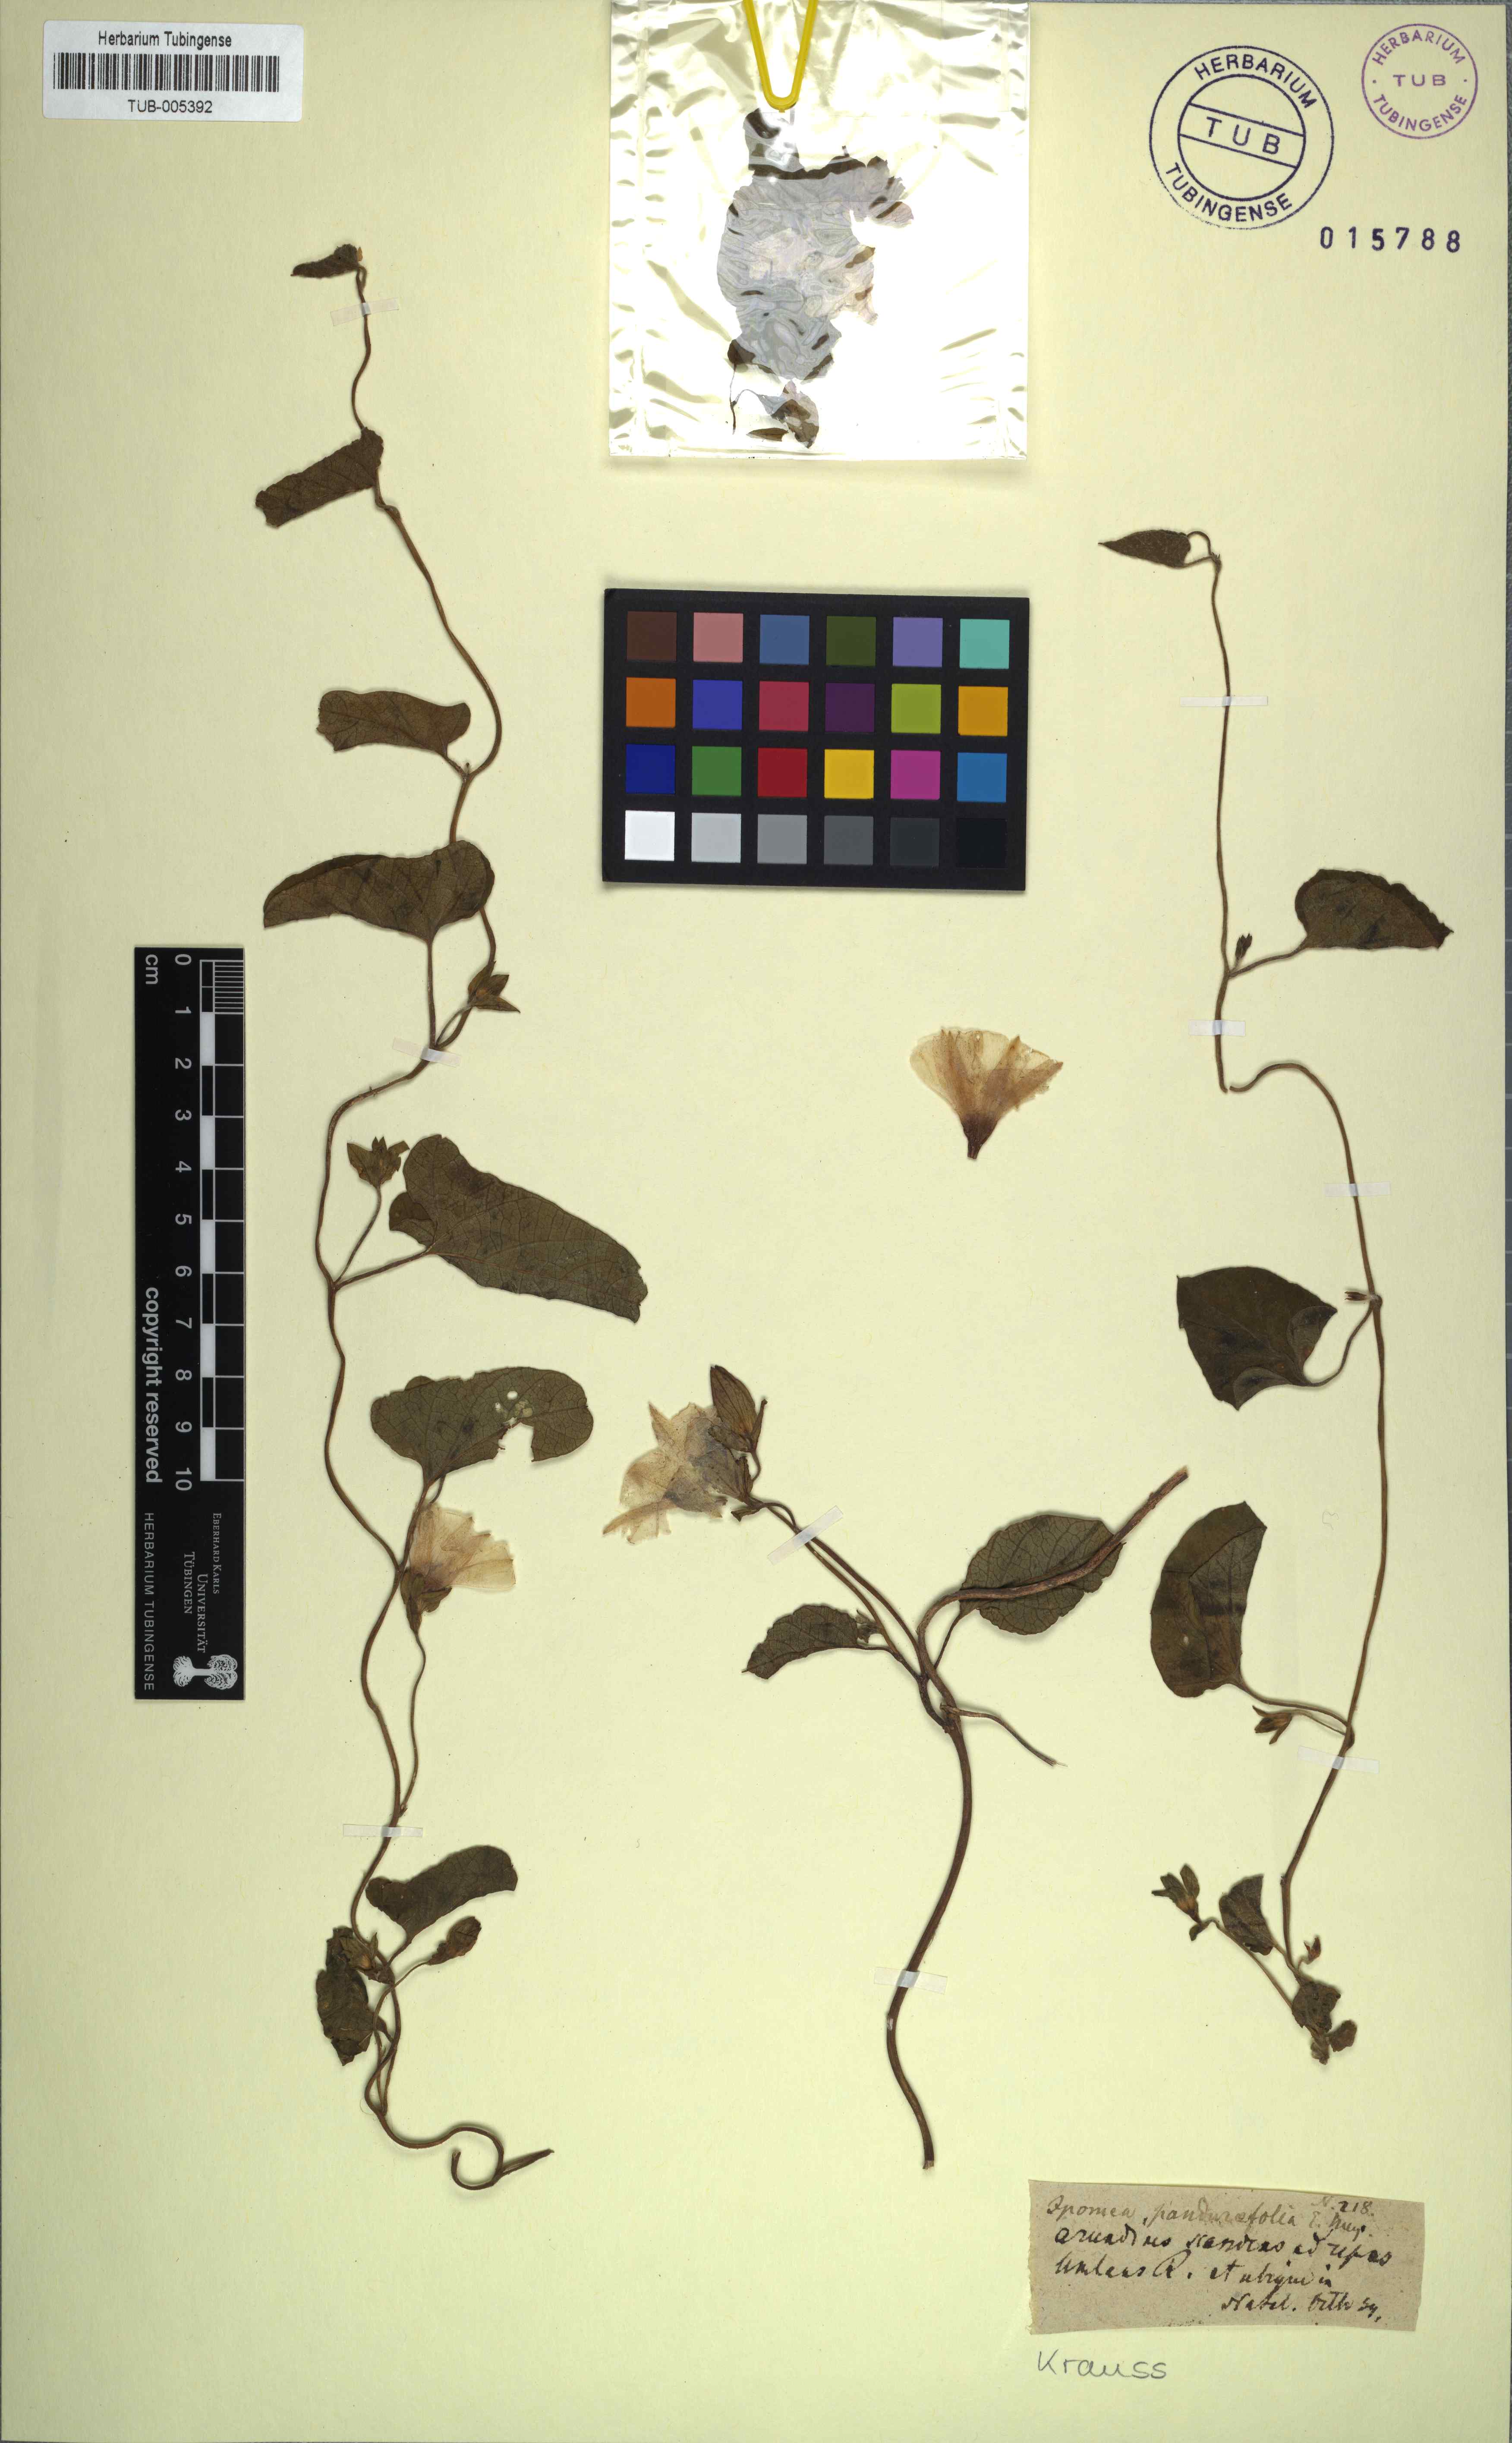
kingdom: Plantae
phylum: Tracheophyta
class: Magnoliopsida
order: Solanales
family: Convolvulaceae
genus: Hewittia
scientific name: Hewittia malabarica
